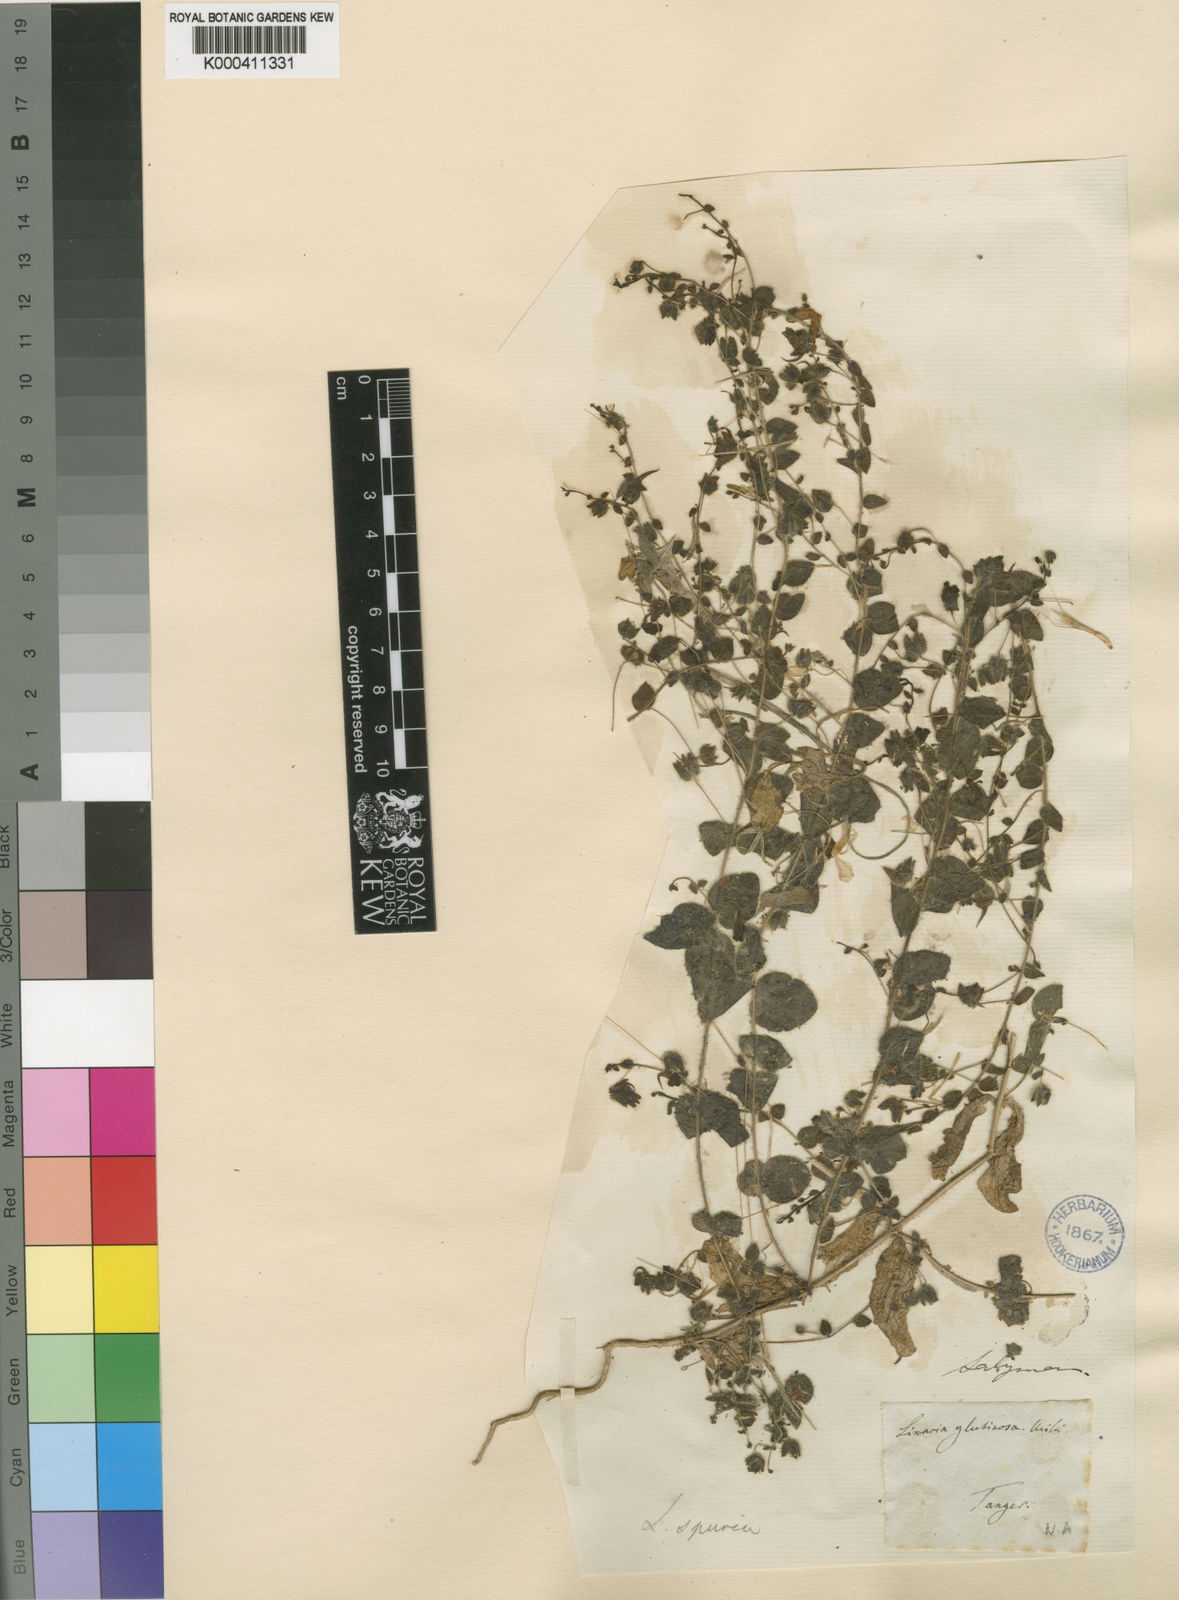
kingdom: Plantae
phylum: Tracheophyta
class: Magnoliopsida
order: Lamiales
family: Plantaginaceae
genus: Kickxia
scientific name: Kickxia spuria
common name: Round-leaved fluellen
